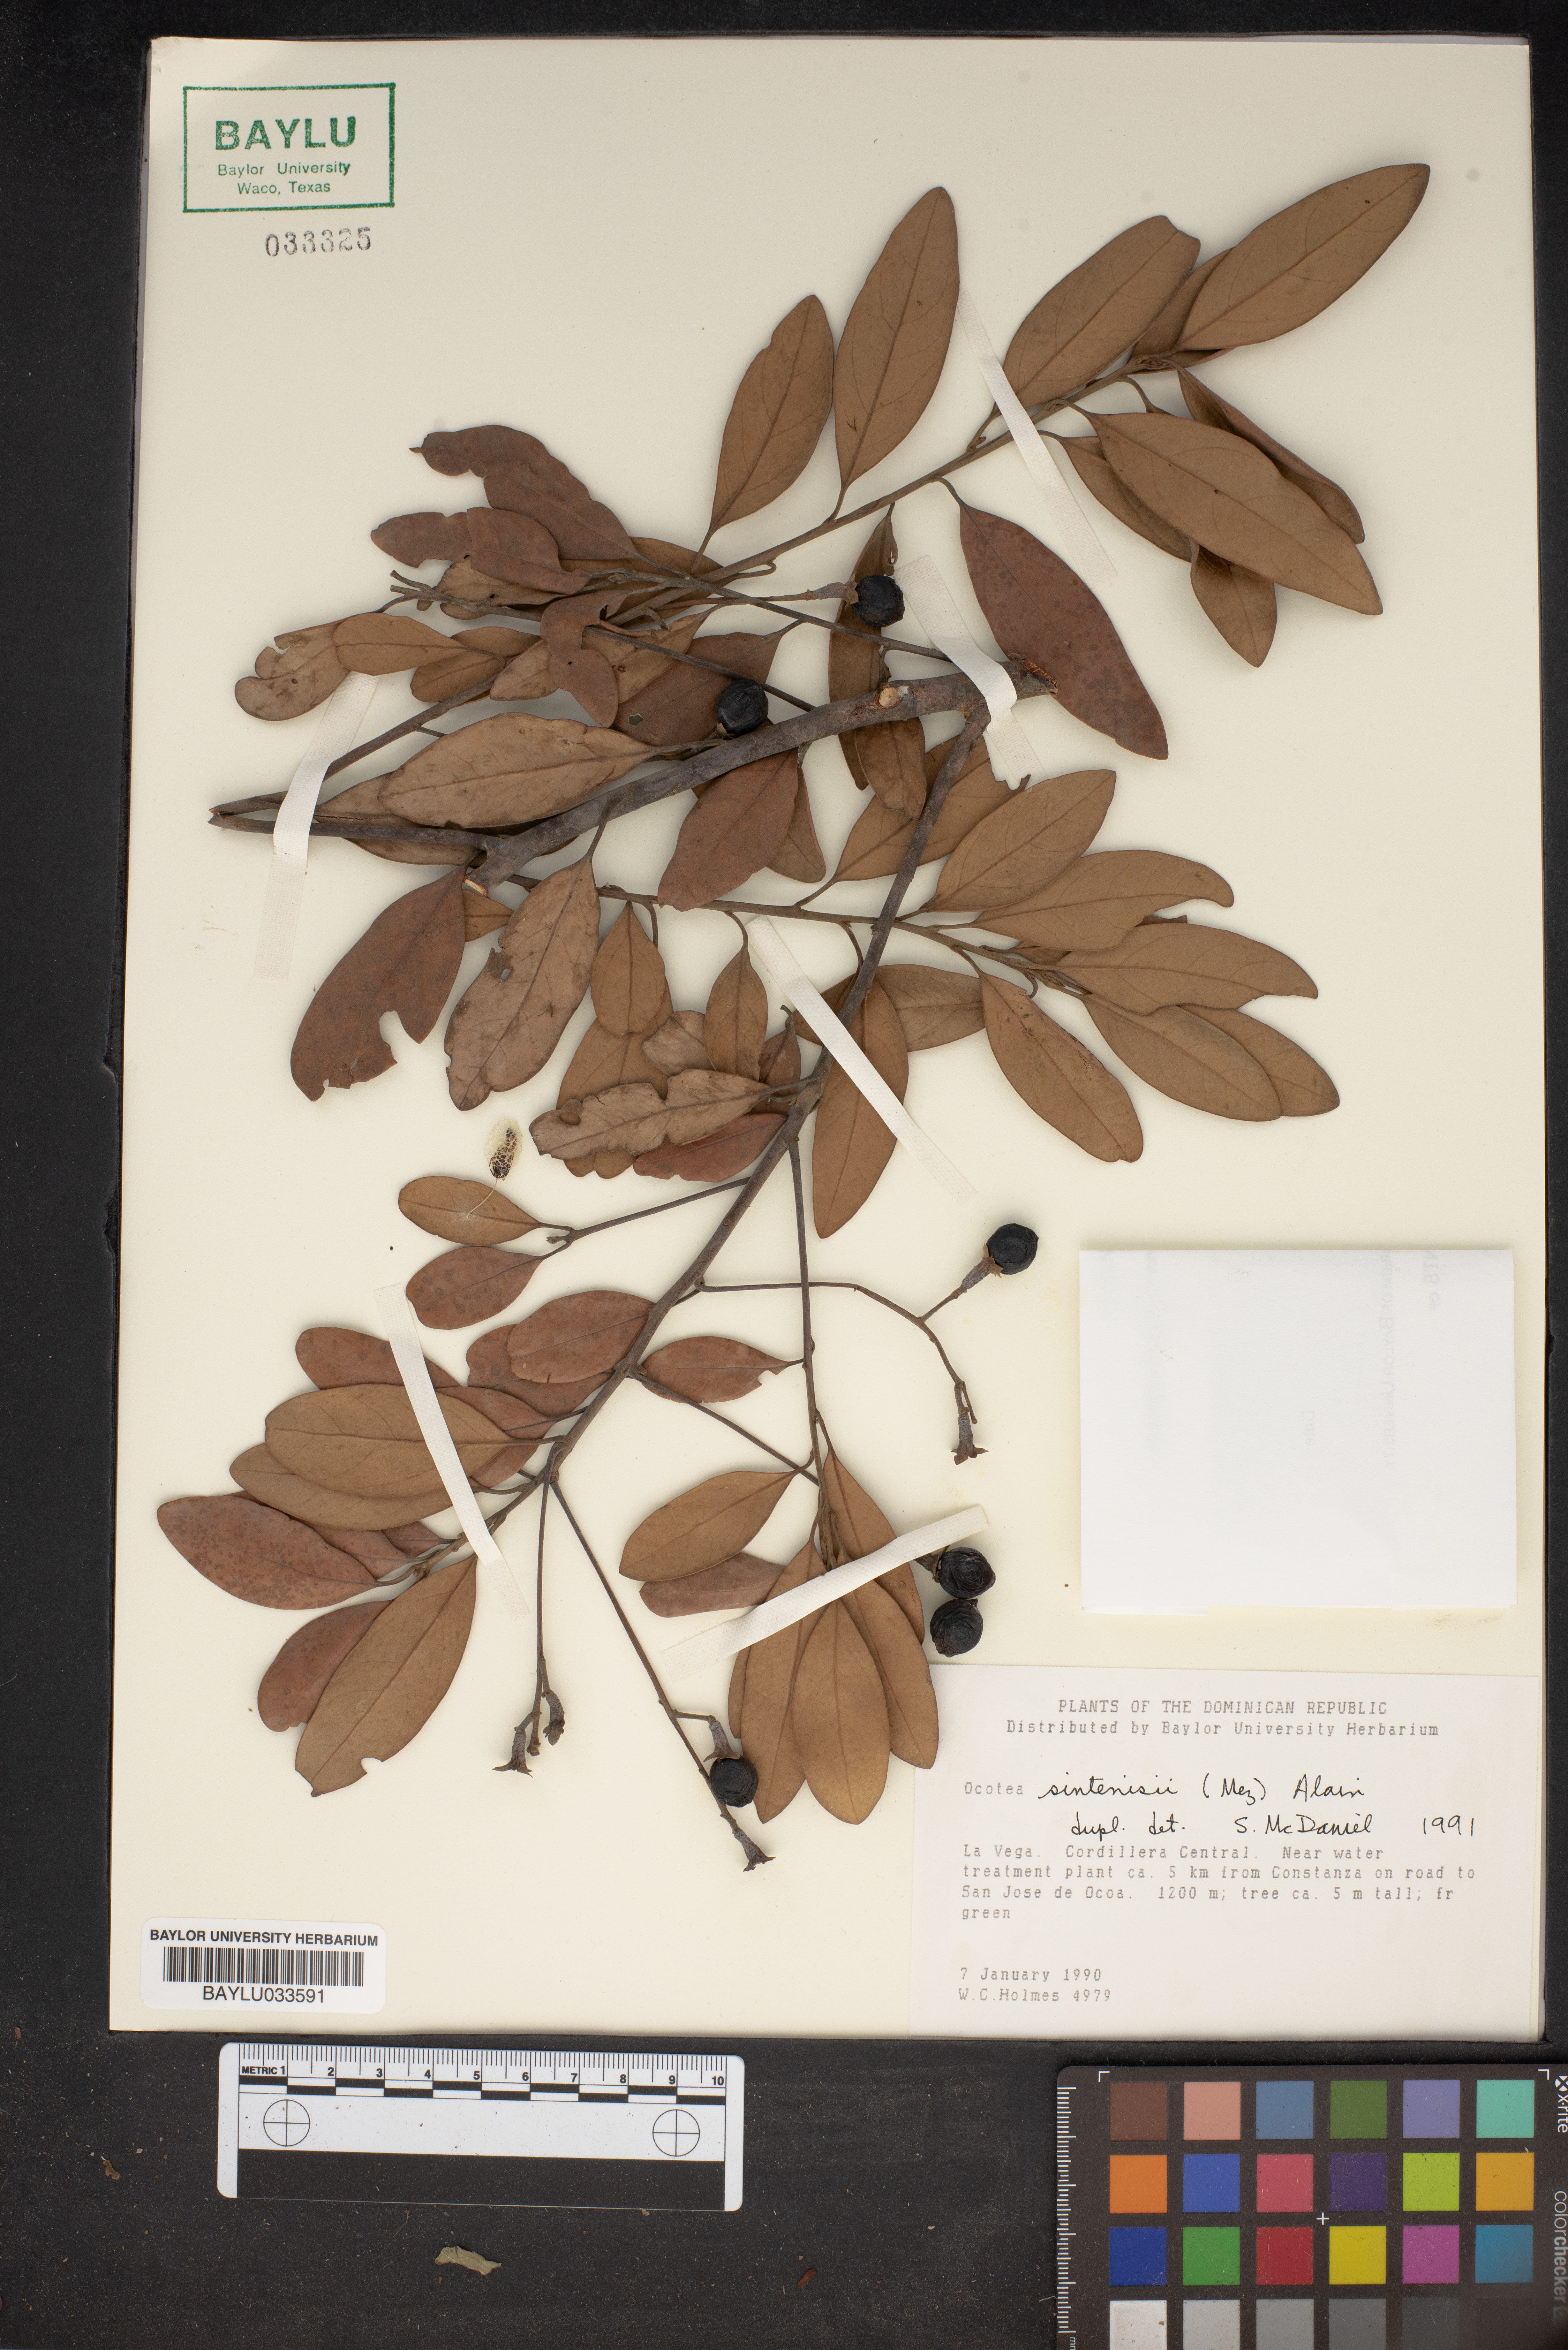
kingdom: Plantae
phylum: Tracheophyta
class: Magnoliopsida
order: Laurales
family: Lauraceae
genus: Nectandra
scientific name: Nectandra turbacensis
